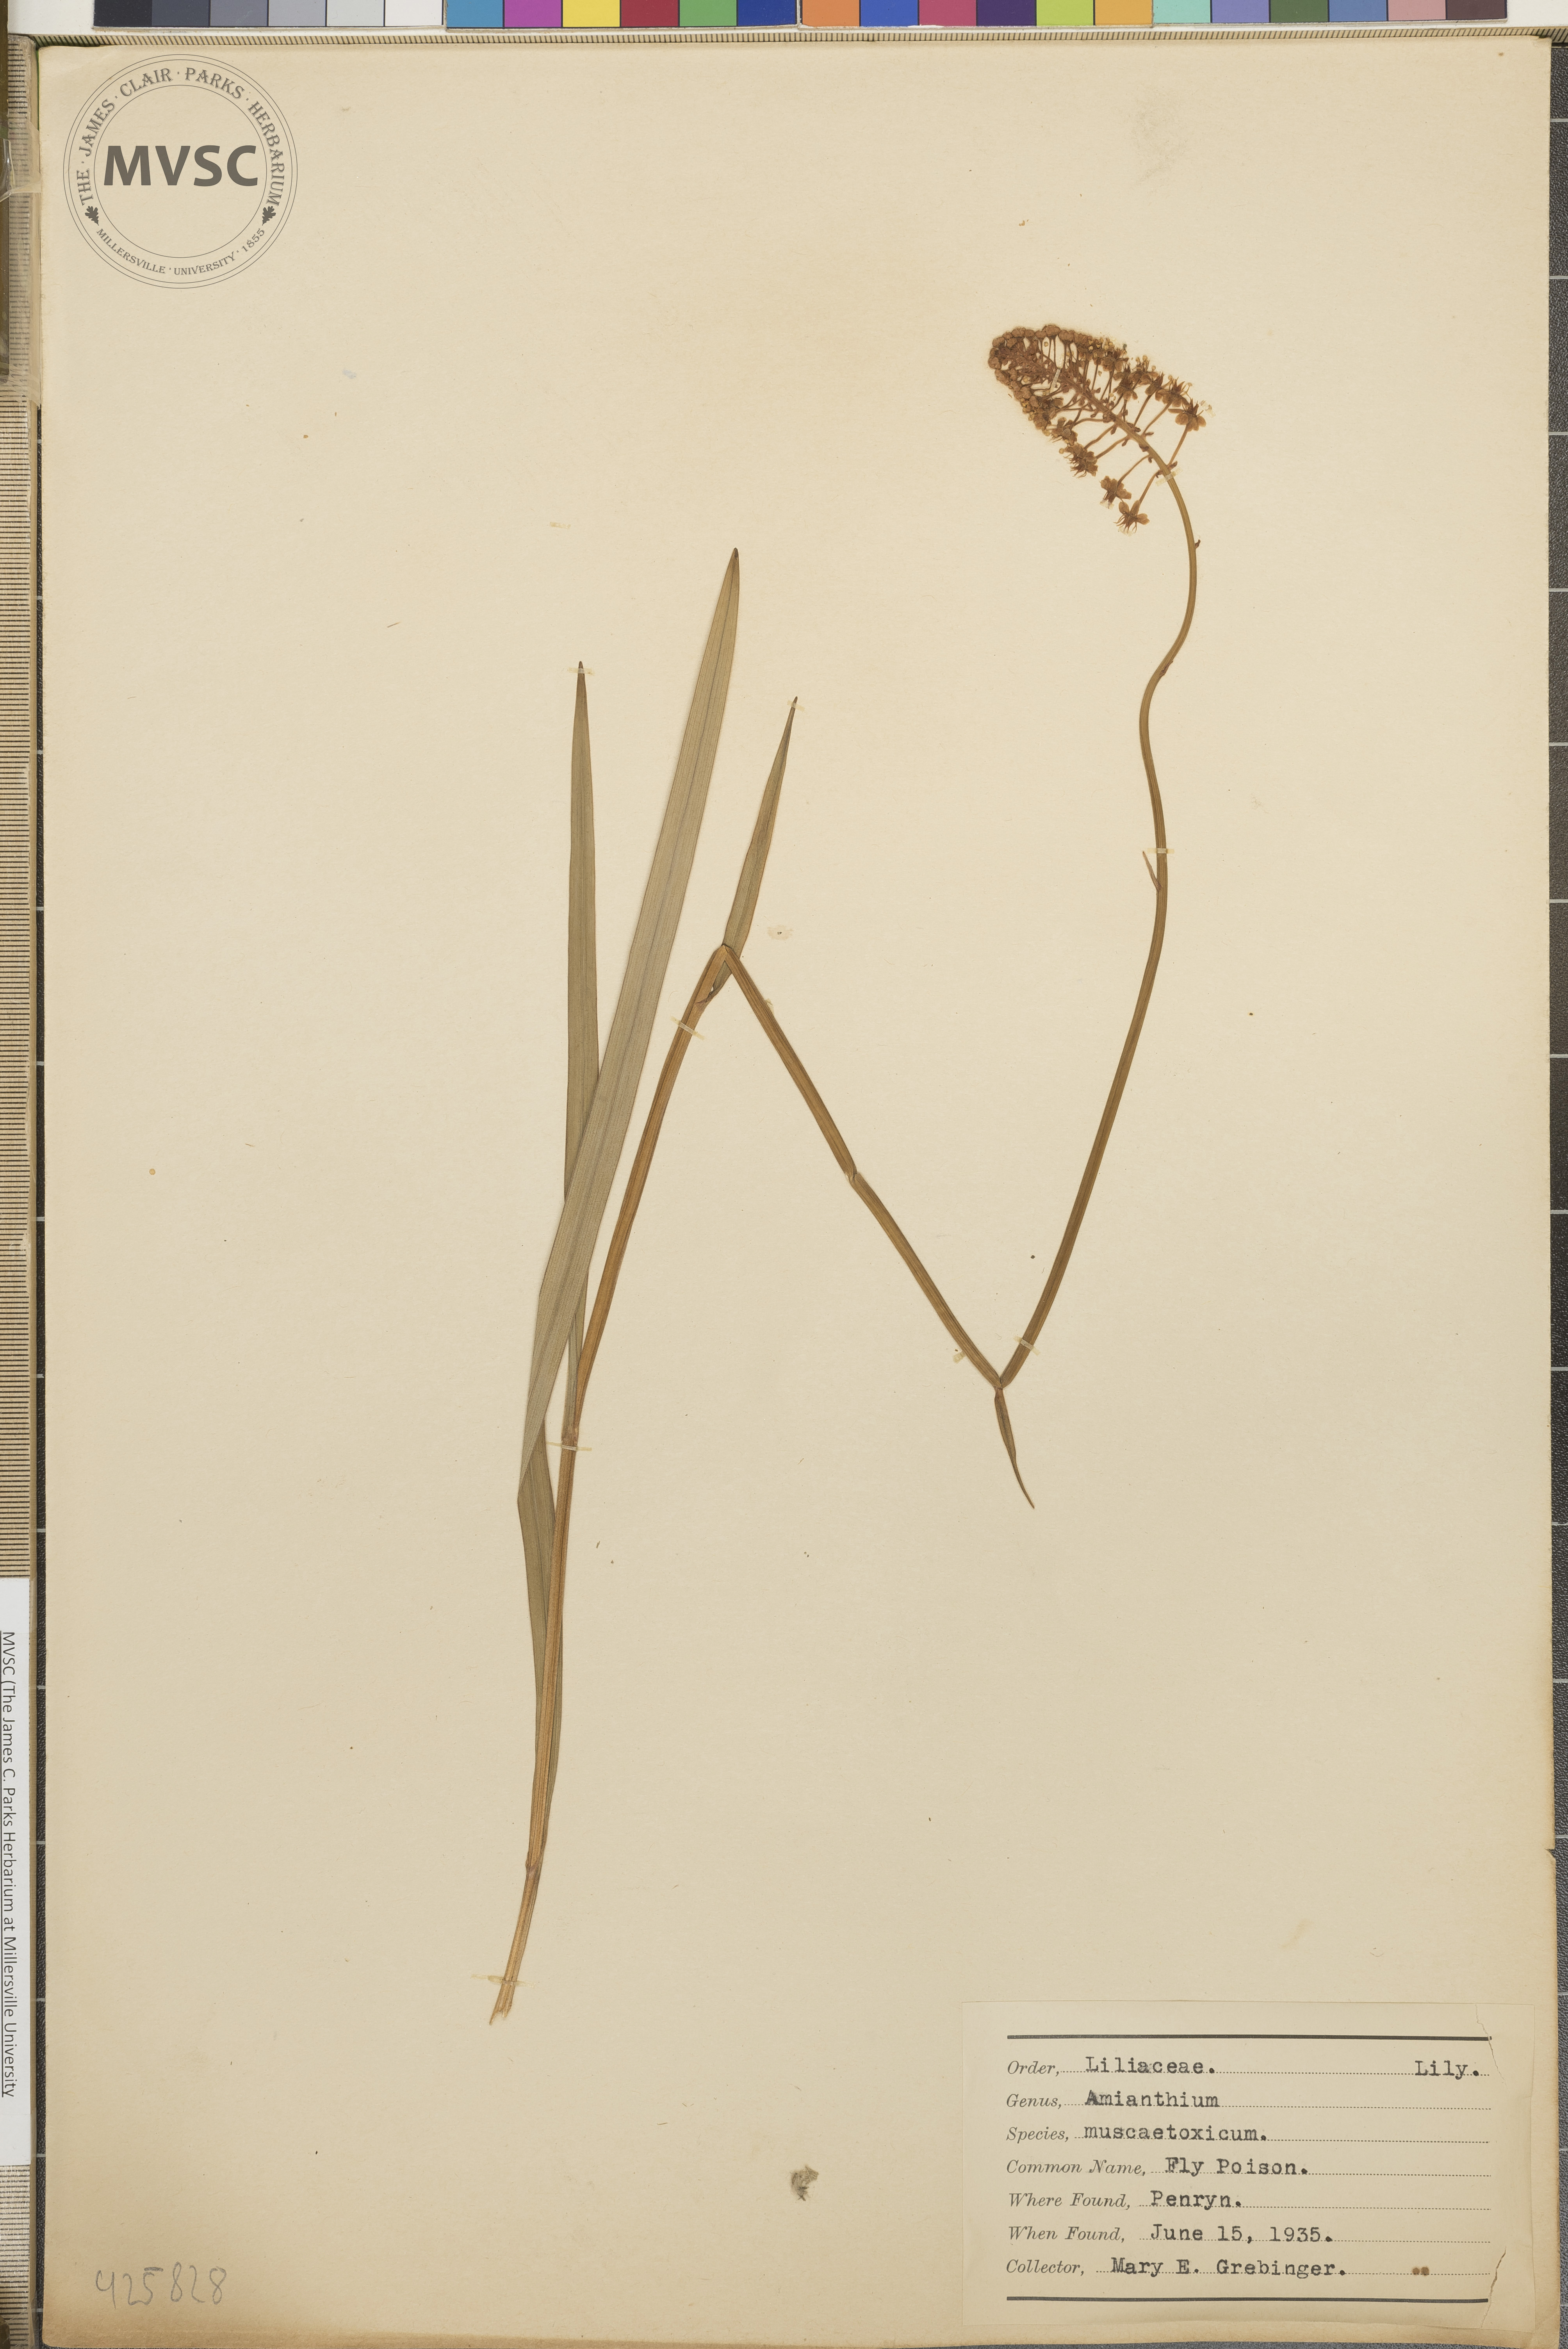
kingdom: Plantae
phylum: Tracheophyta
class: Liliopsida
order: Liliales
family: Melanthiaceae
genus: Amianthium
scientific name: Amianthium muscitoxicum
